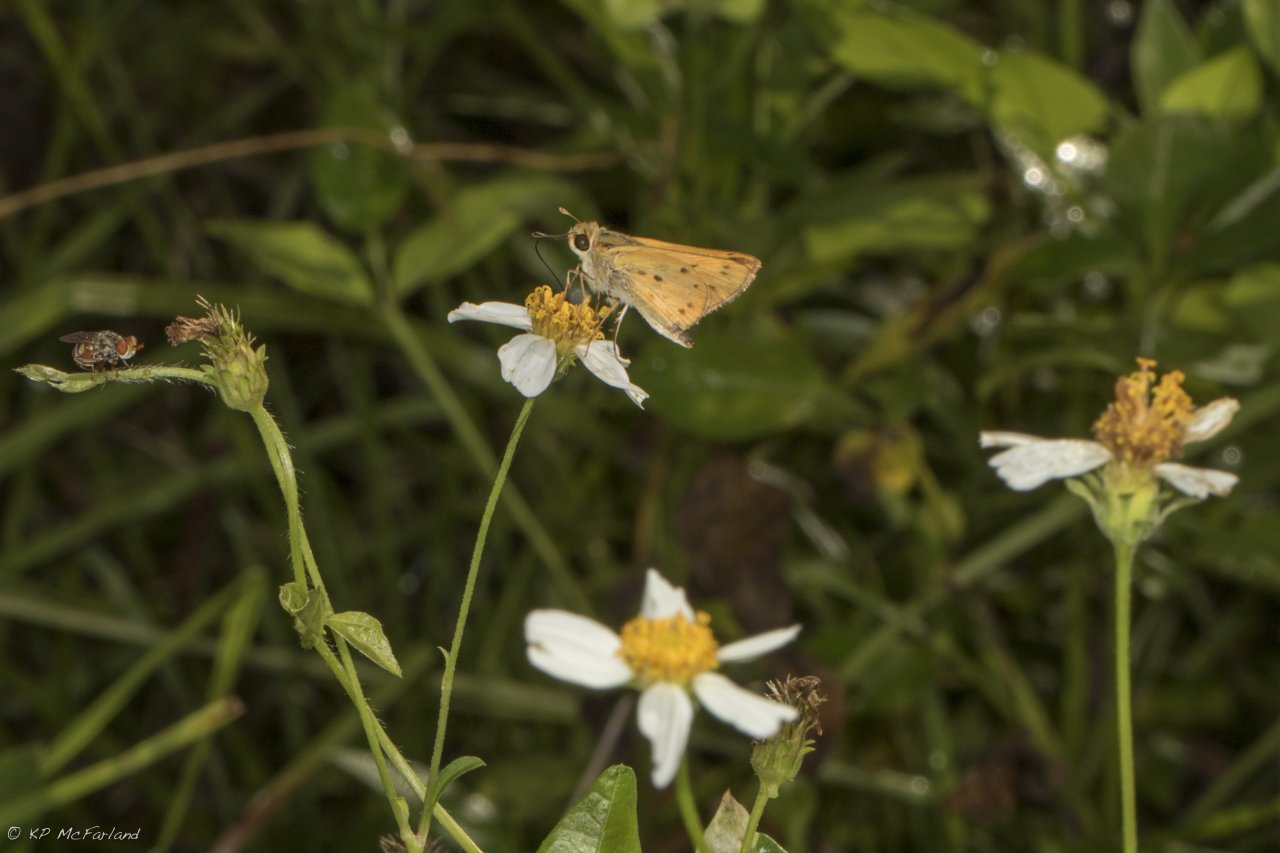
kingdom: Animalia
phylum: Arthropoda
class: Insecta
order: Lepidoptera
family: Hesperiidae
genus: Hylephila
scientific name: Hylephila phyleus
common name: Fiery Skipper
